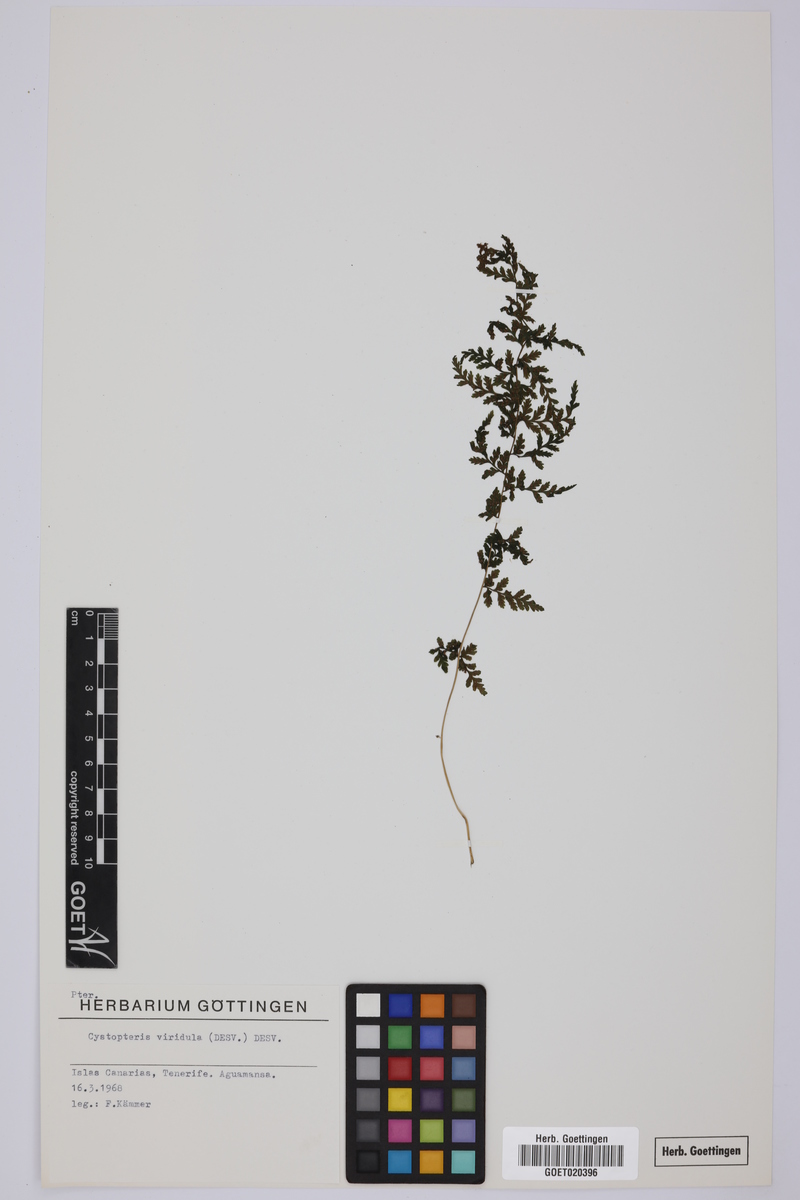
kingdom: Plantae
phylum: Tracheophyta
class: Polypodiopsida
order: Polypodiales
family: Cystopteridaceae
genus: Cystopteris
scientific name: Cystopteris diaphana
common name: Greenish bladder-fern
